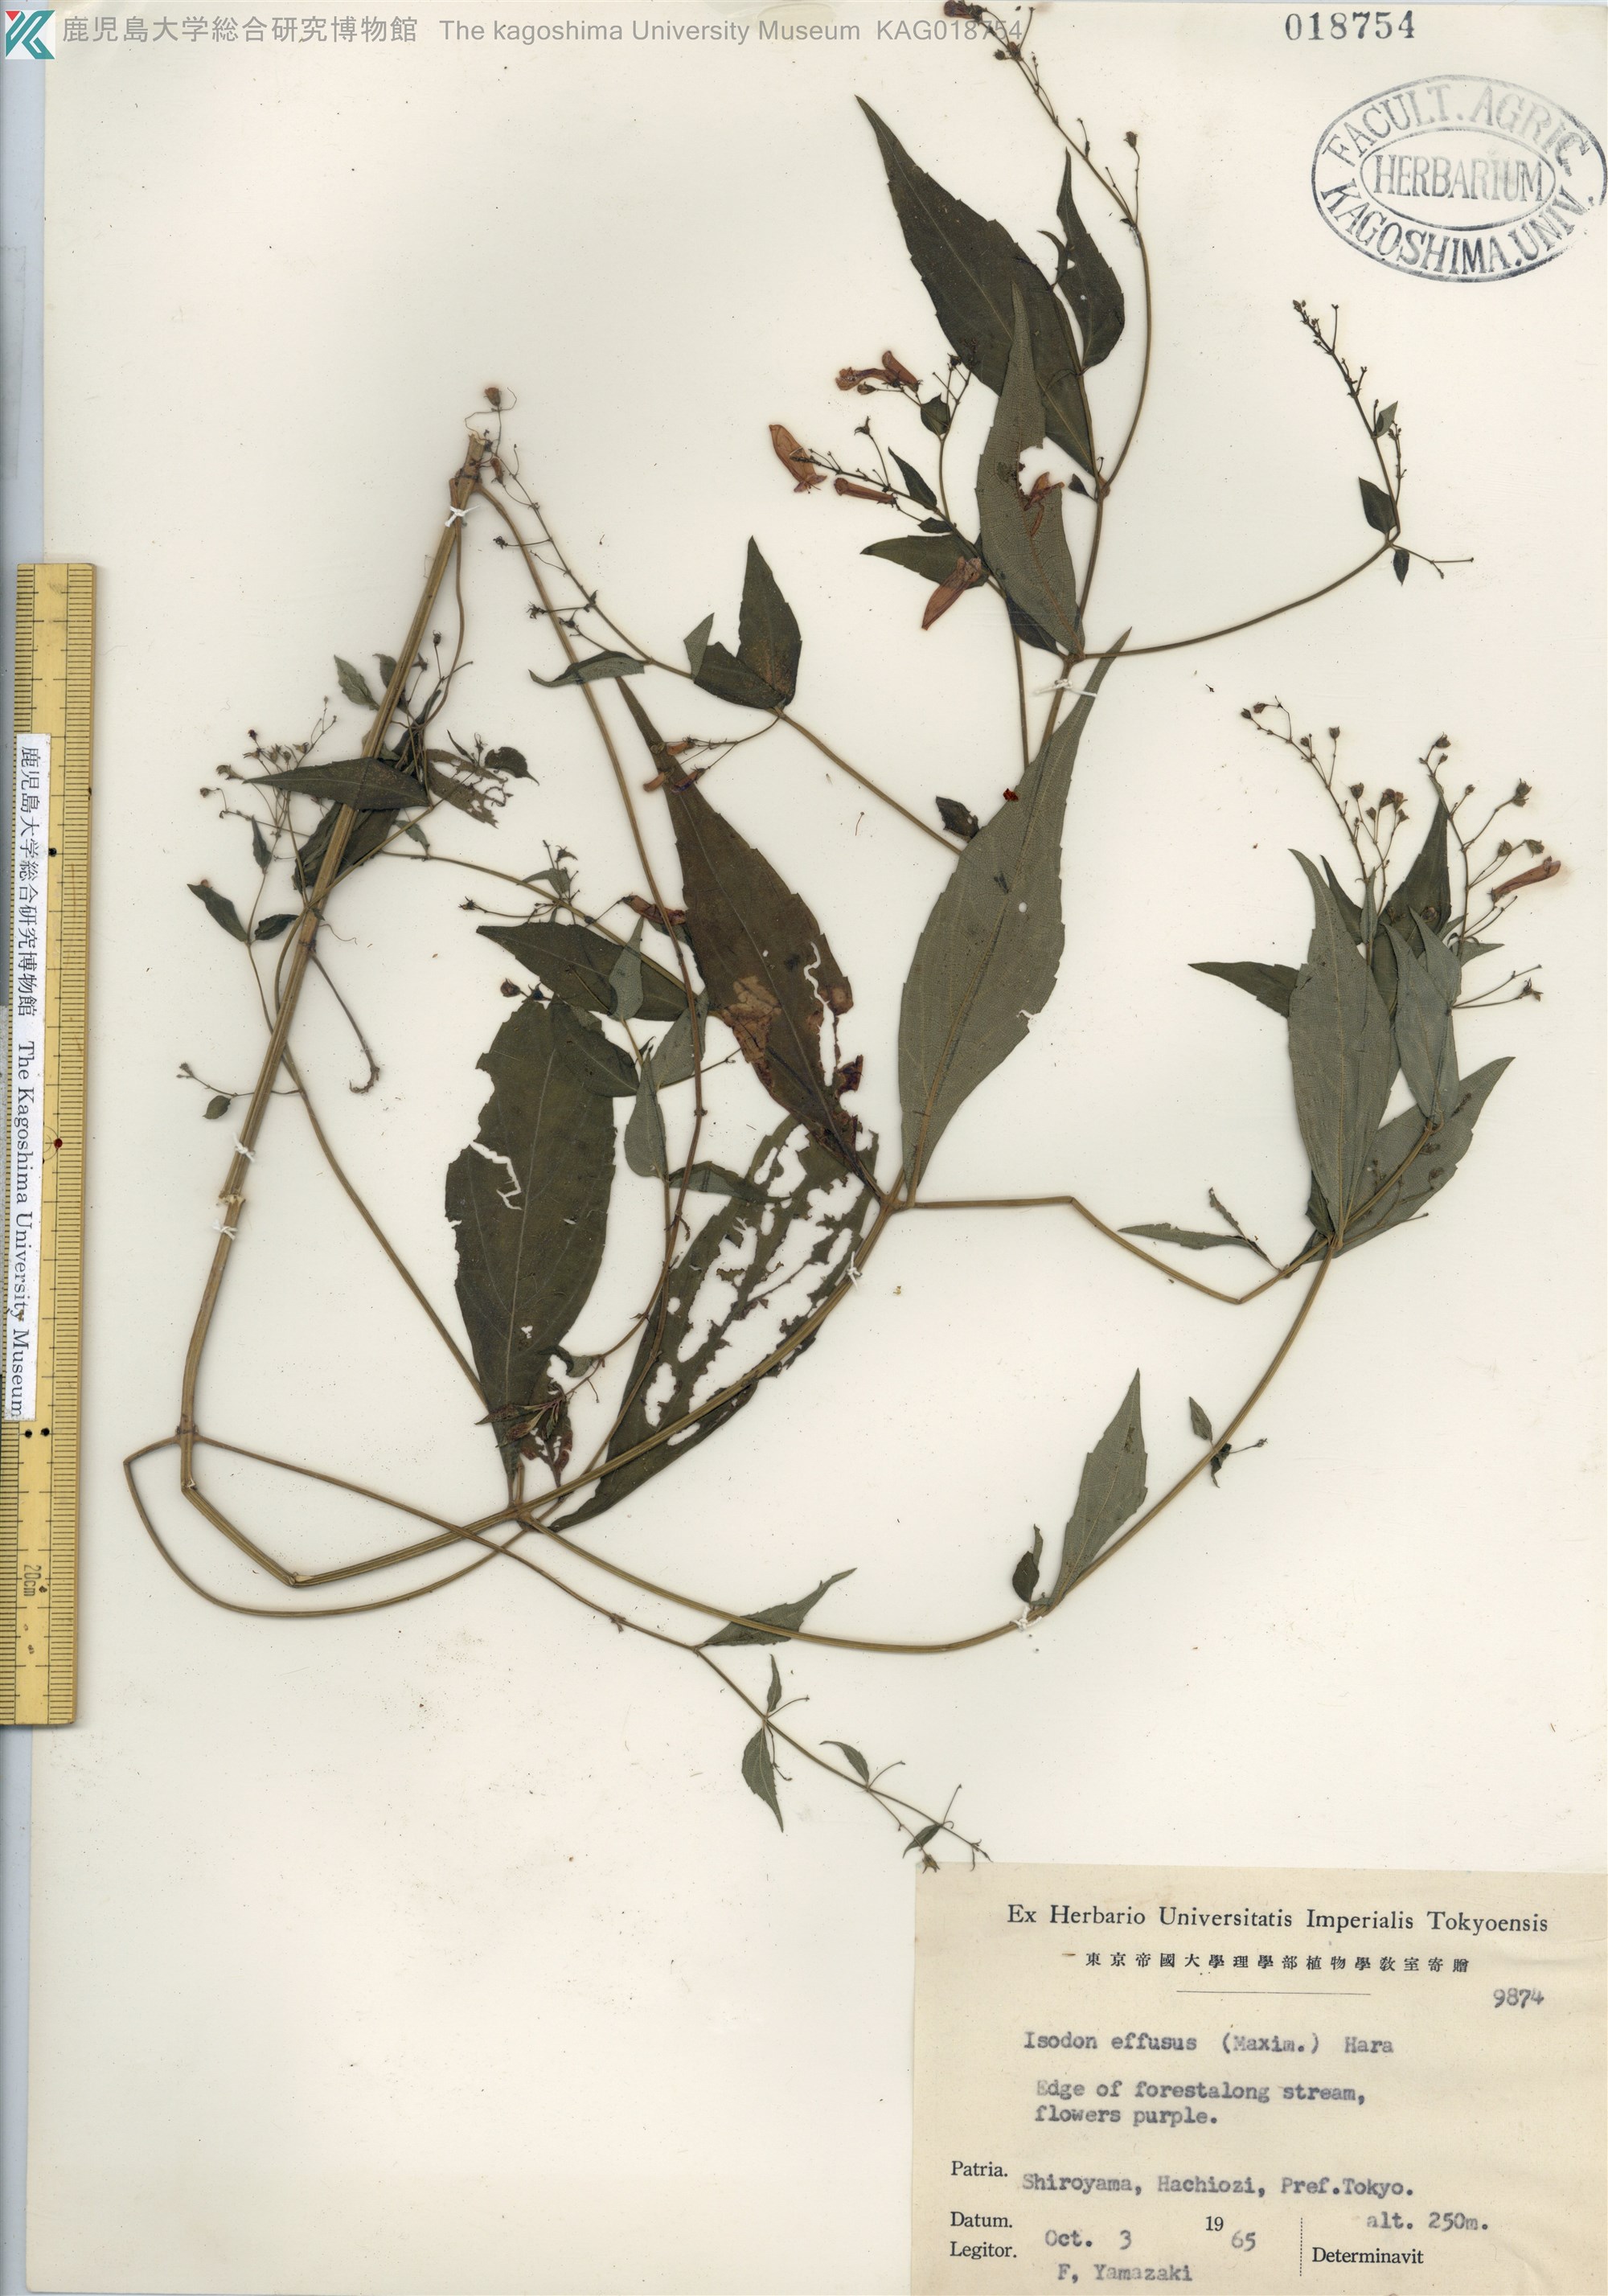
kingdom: Plantae
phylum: Tracheophyta
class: Magnoliopsida
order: Lamiales
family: Lamiaceae
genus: Isodon
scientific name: Isodon effusus
